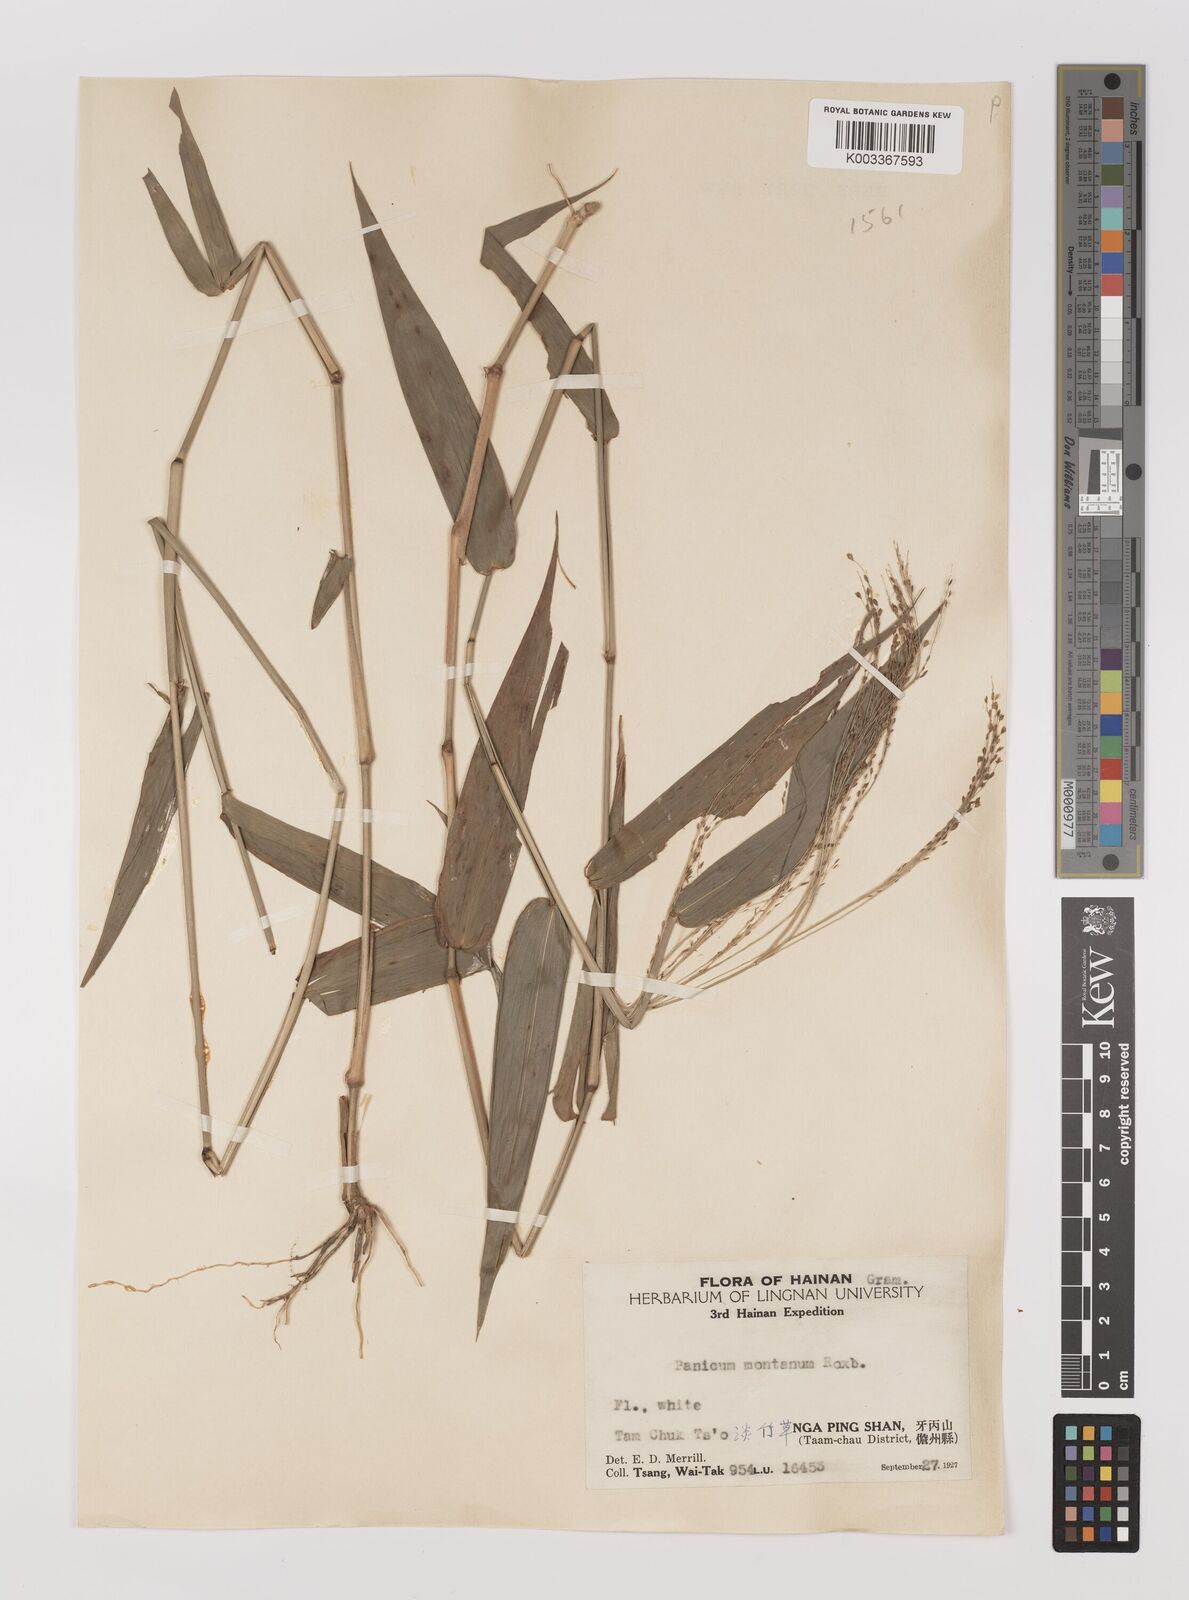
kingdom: Plantae
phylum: Tracheophyta
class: Liliopsida
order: Poales
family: Poaceae
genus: Panicum
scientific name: Panicum notatum
